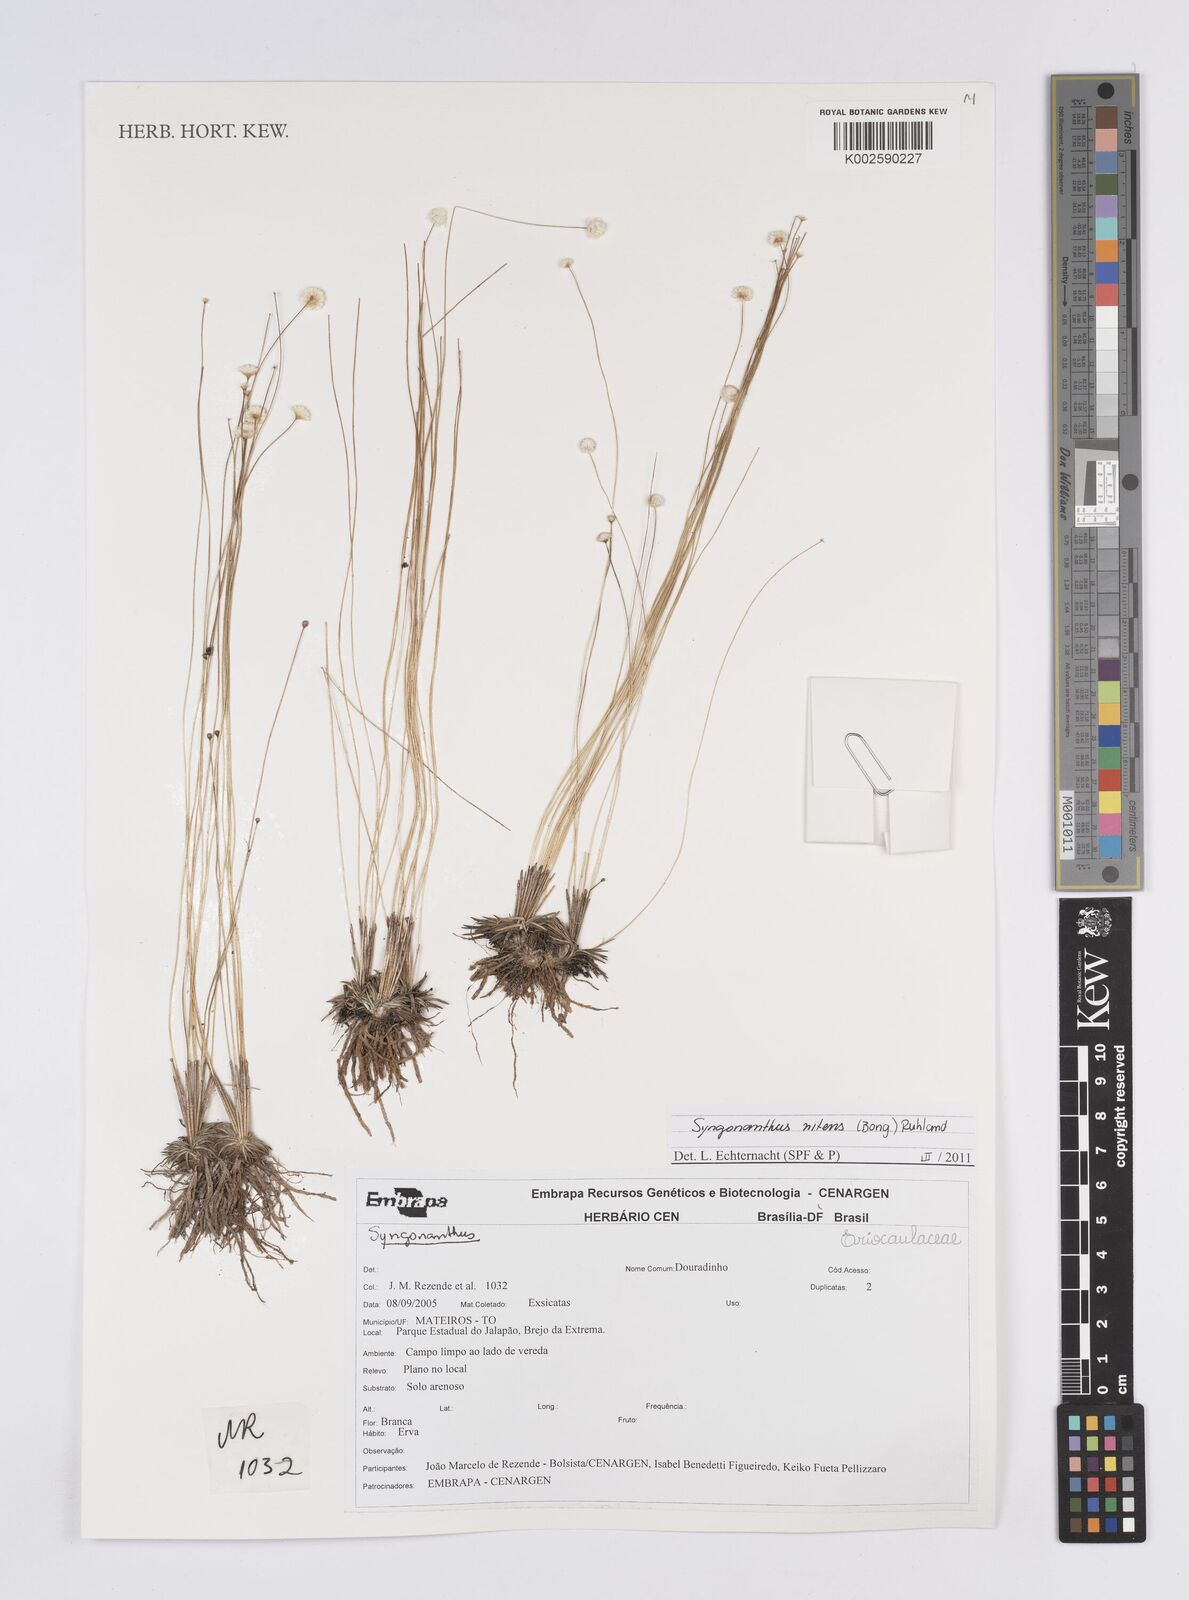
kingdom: Plantae
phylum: Tracheophyta
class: Liliopsida
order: Poales
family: Eriocaulaceae
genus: Syngonanthus
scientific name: Syngonanthus nitens
